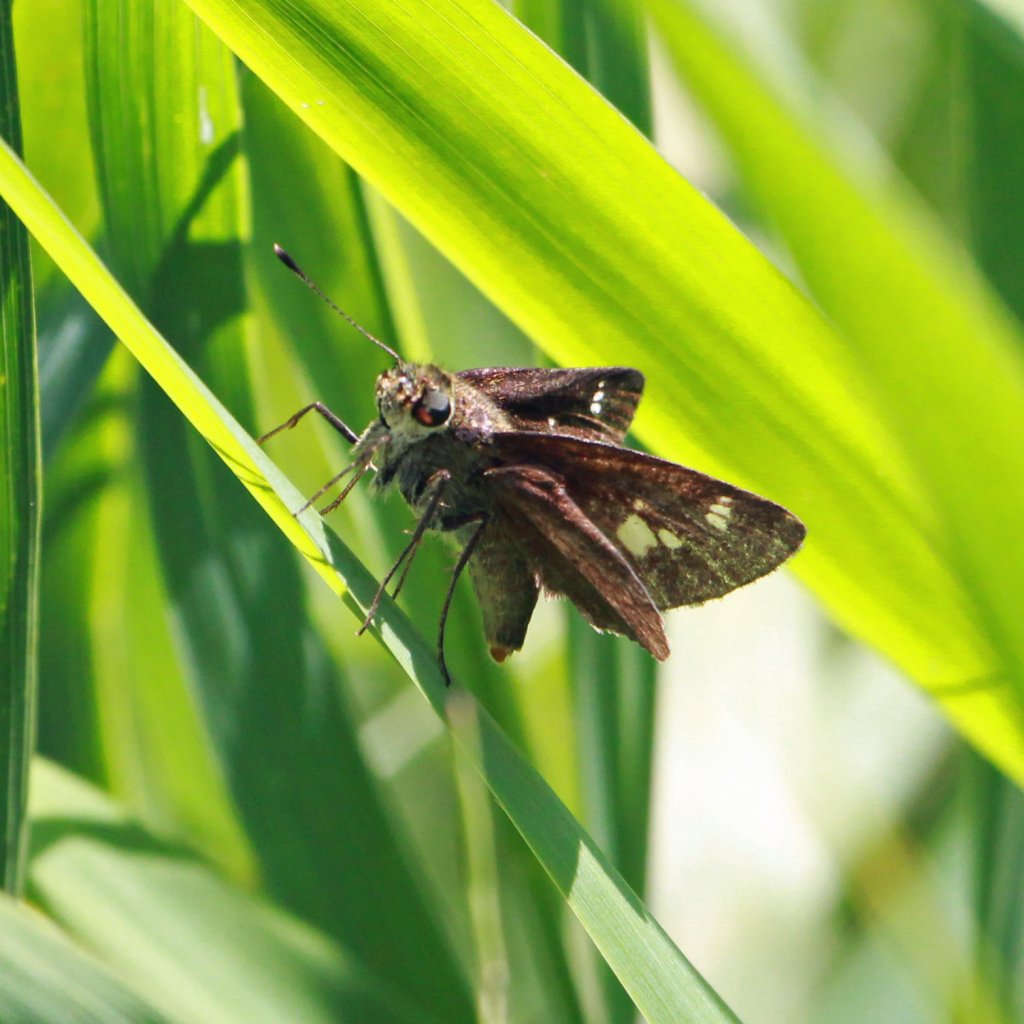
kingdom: Animalia
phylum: Arthropoda
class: Insecta
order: Lepidoptera
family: Hesperiidae
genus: Vernia
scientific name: Vernia verna
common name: Little Glassywing
